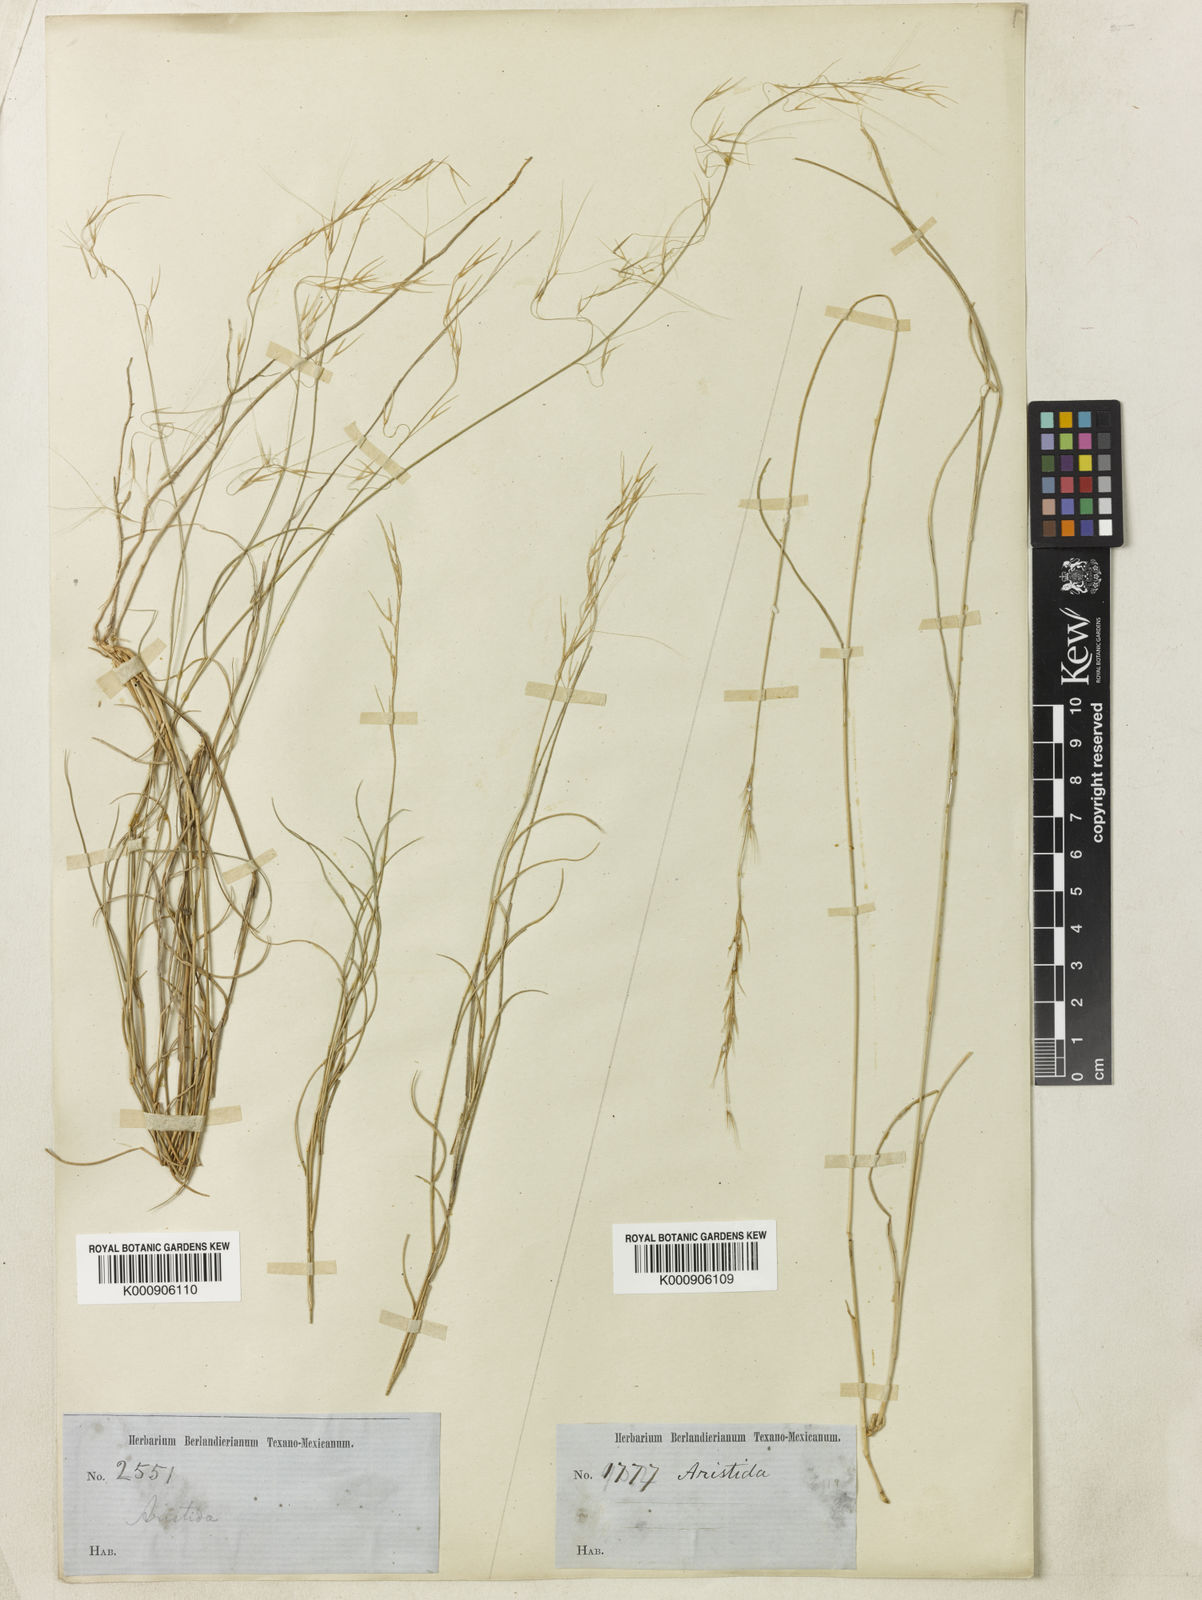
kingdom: Plantae
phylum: Tracheophyta
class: Liliopsida
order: Poales
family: Poaceae
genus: Aristida
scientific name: Aristida purpurea
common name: Purple threeawn
